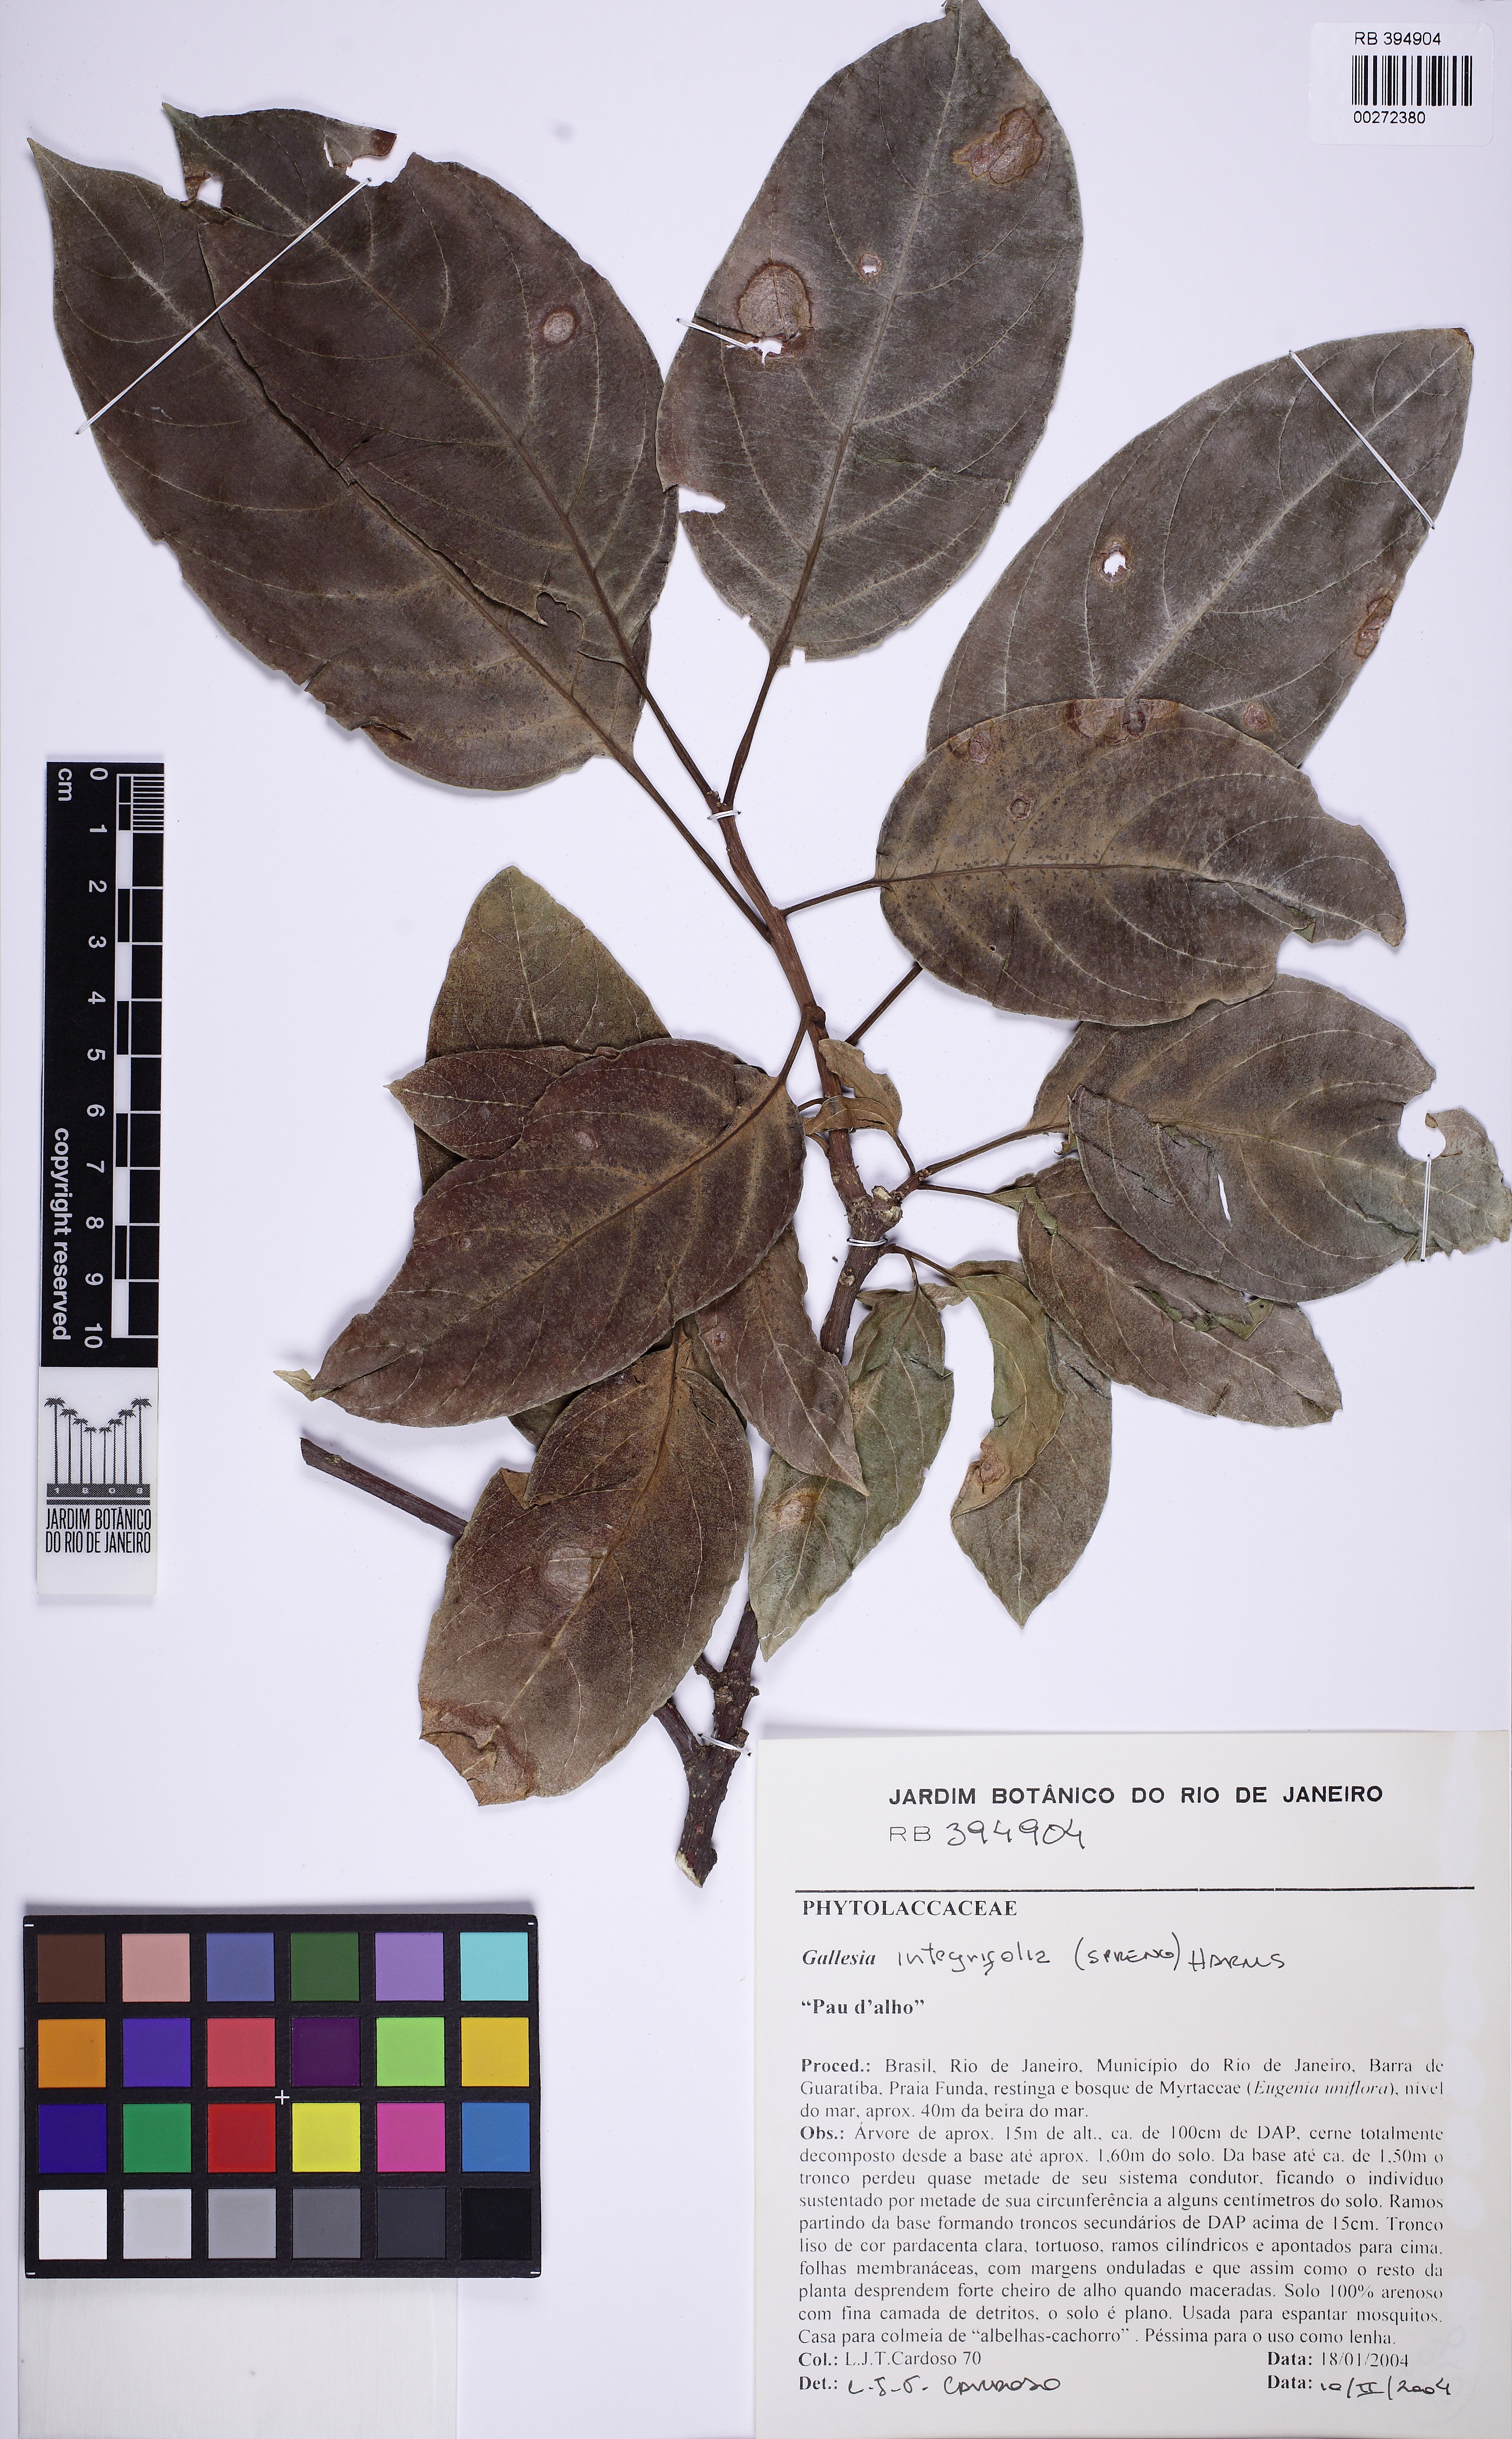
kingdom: Plantae
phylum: Tracheophyta
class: Magnoliopsida
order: Caryophyllales
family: Phytolaccaceae
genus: Gallesia
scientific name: Gallesia integrifolia
